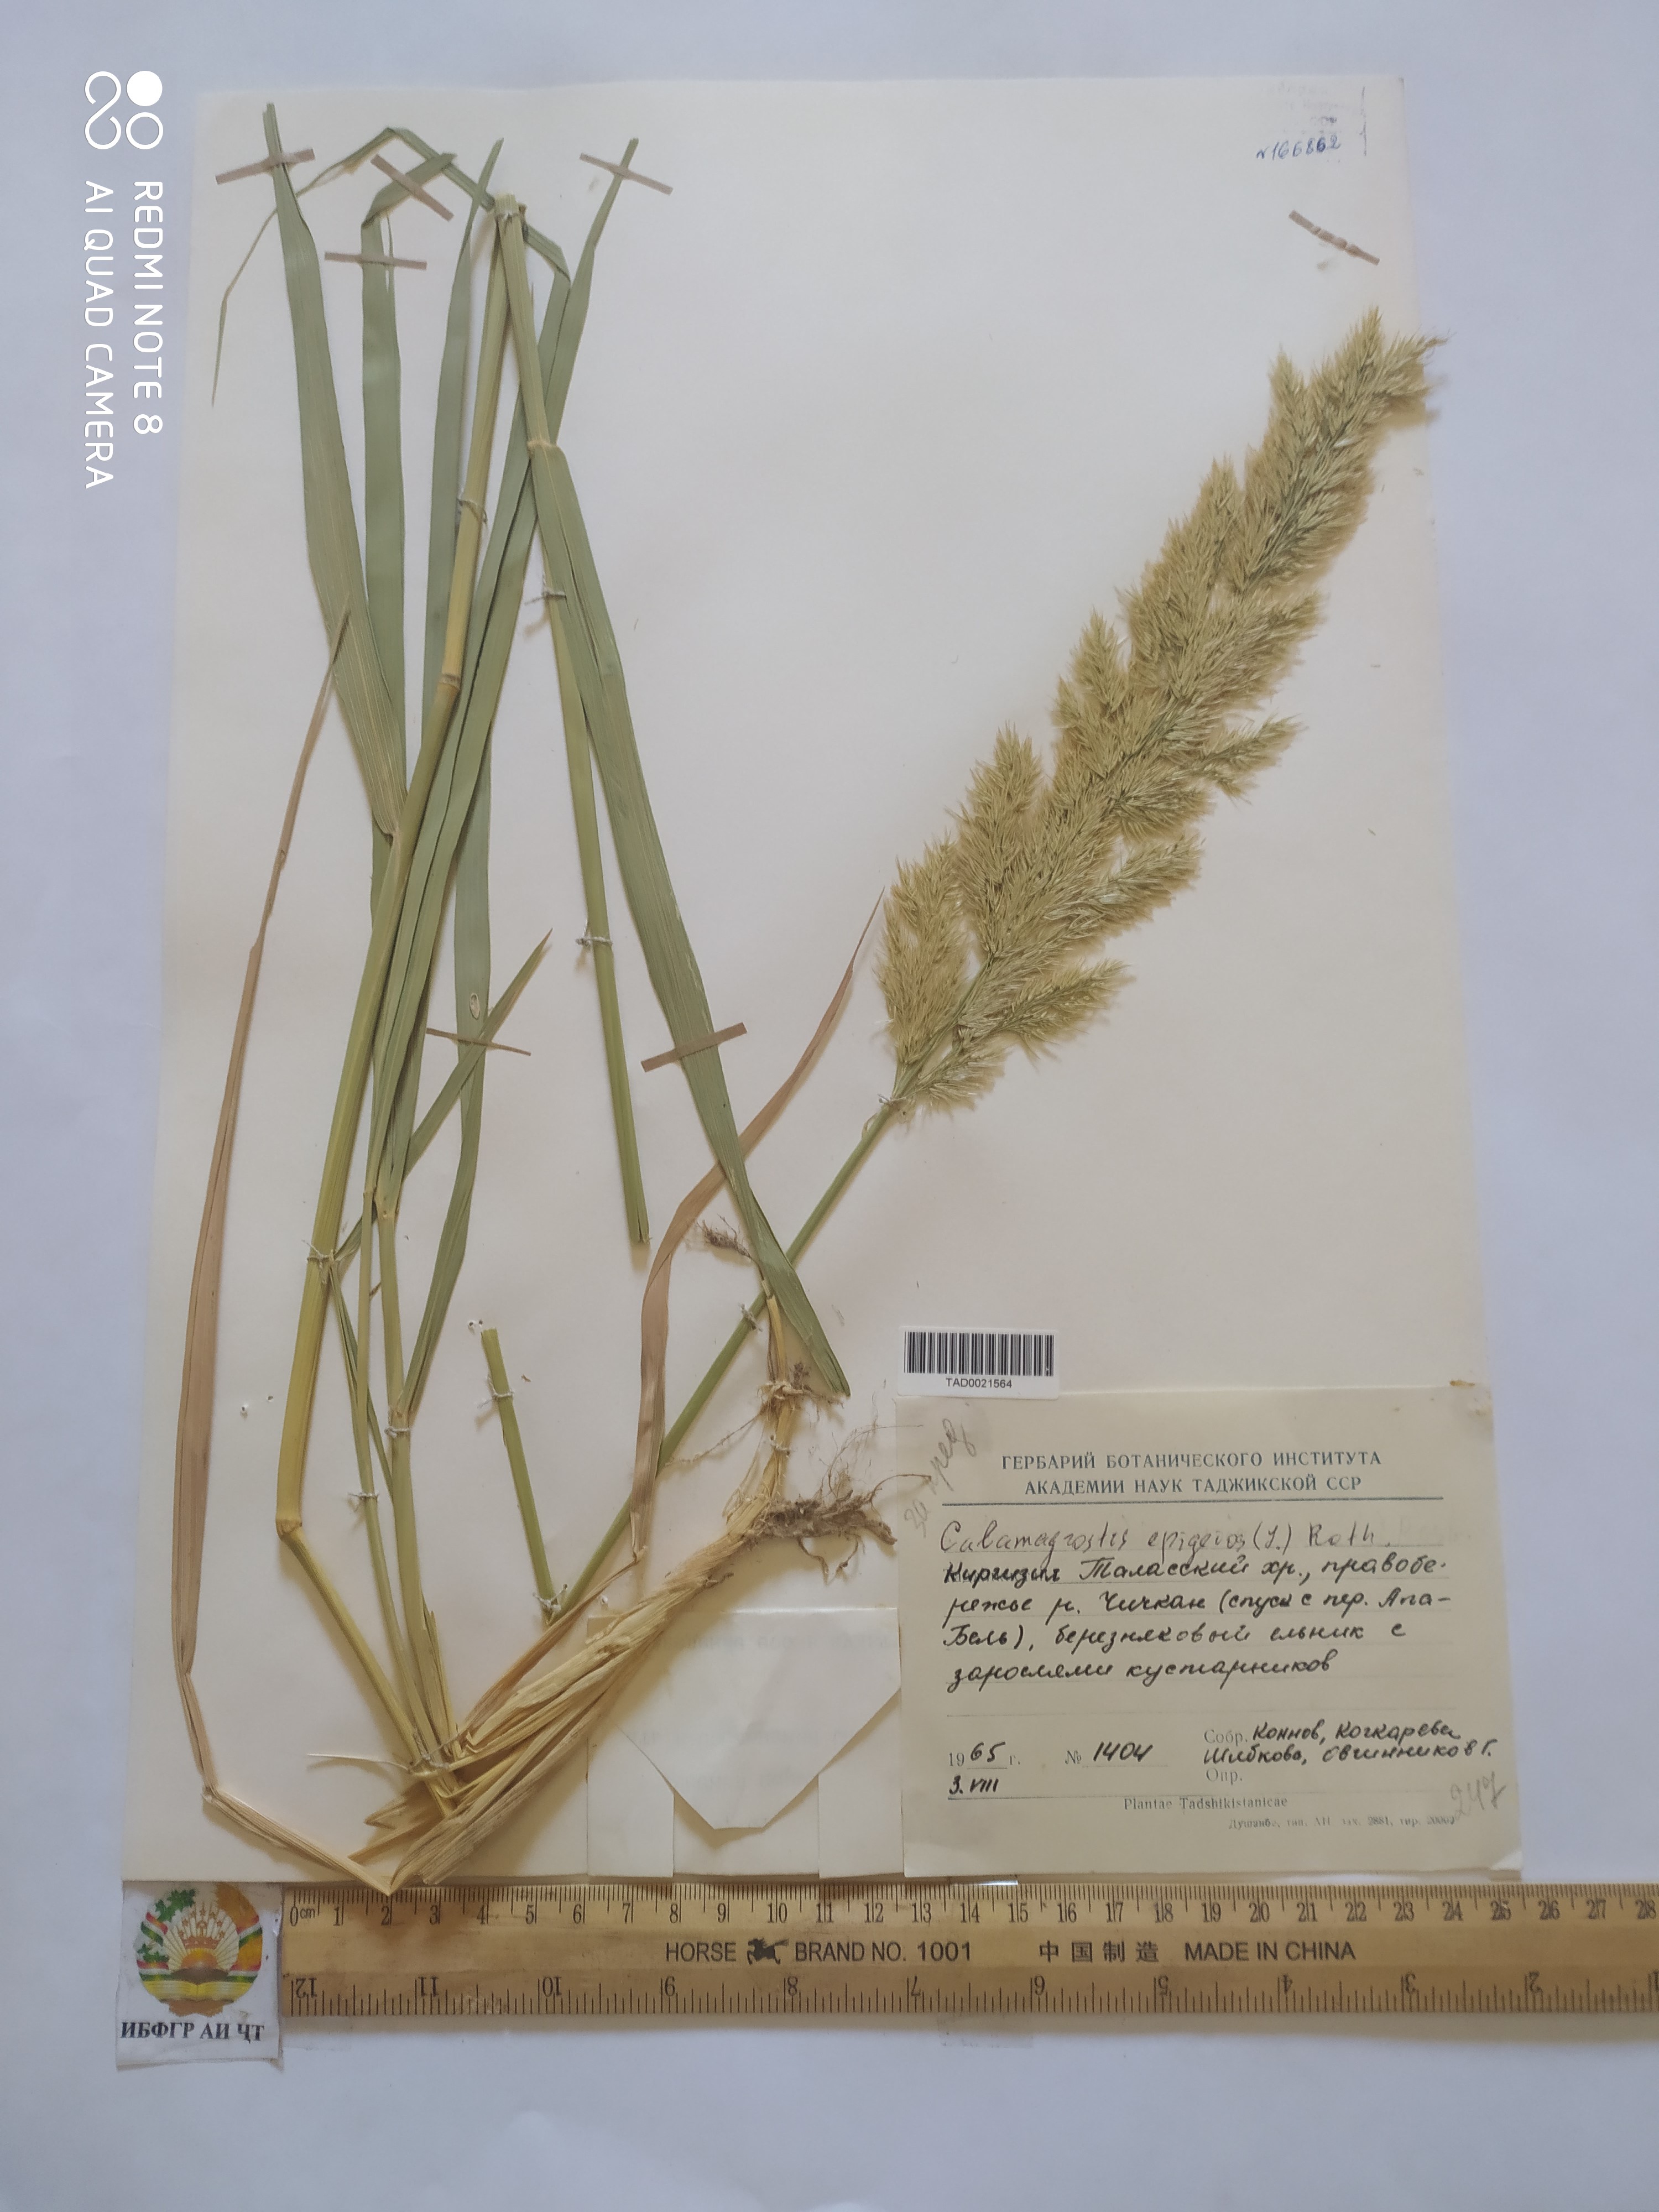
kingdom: Plantae
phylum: Tracheophyta
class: Liliopsida
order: Poales
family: Poaceae
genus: Calamagrostis
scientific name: Calamagrostis epigejos
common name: Wood small-reed
